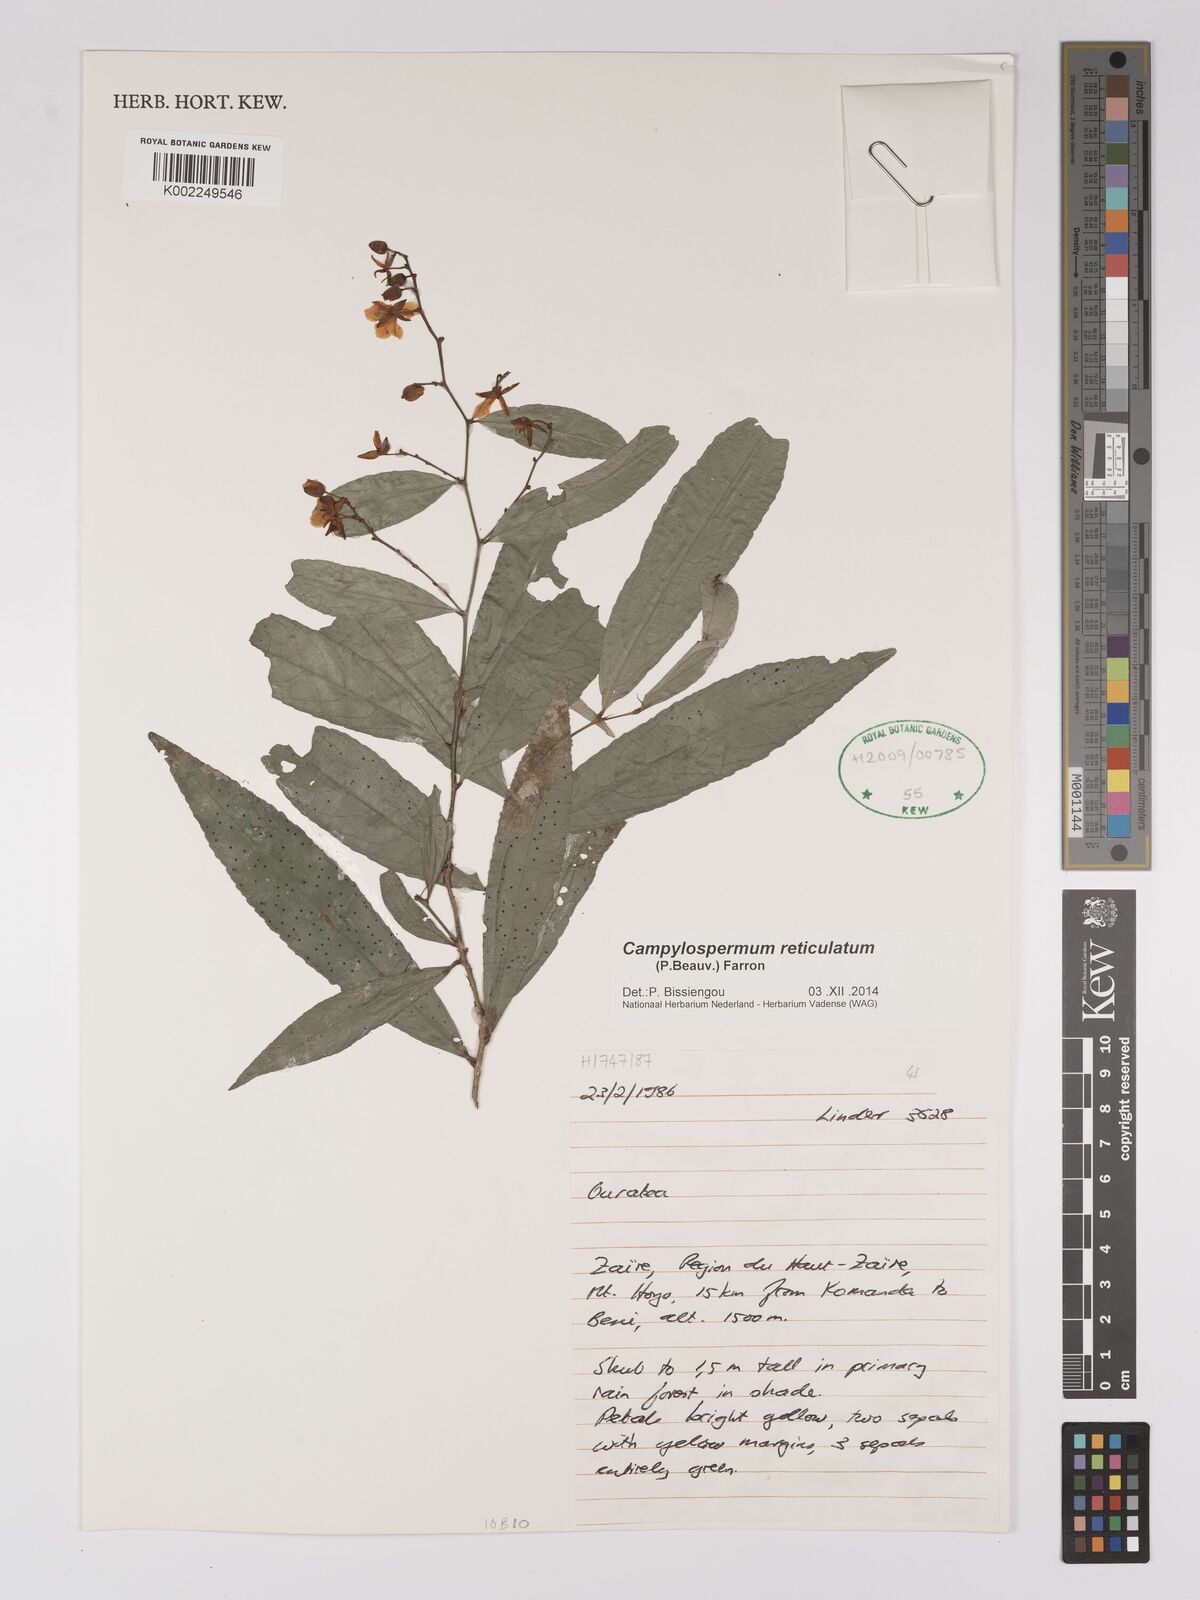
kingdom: Plantae
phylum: Tracheophyta
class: Magnoliopsida
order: Malpighiales
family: Ochnaceae
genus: Campylospermum
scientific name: Campylospermum reticulatum
